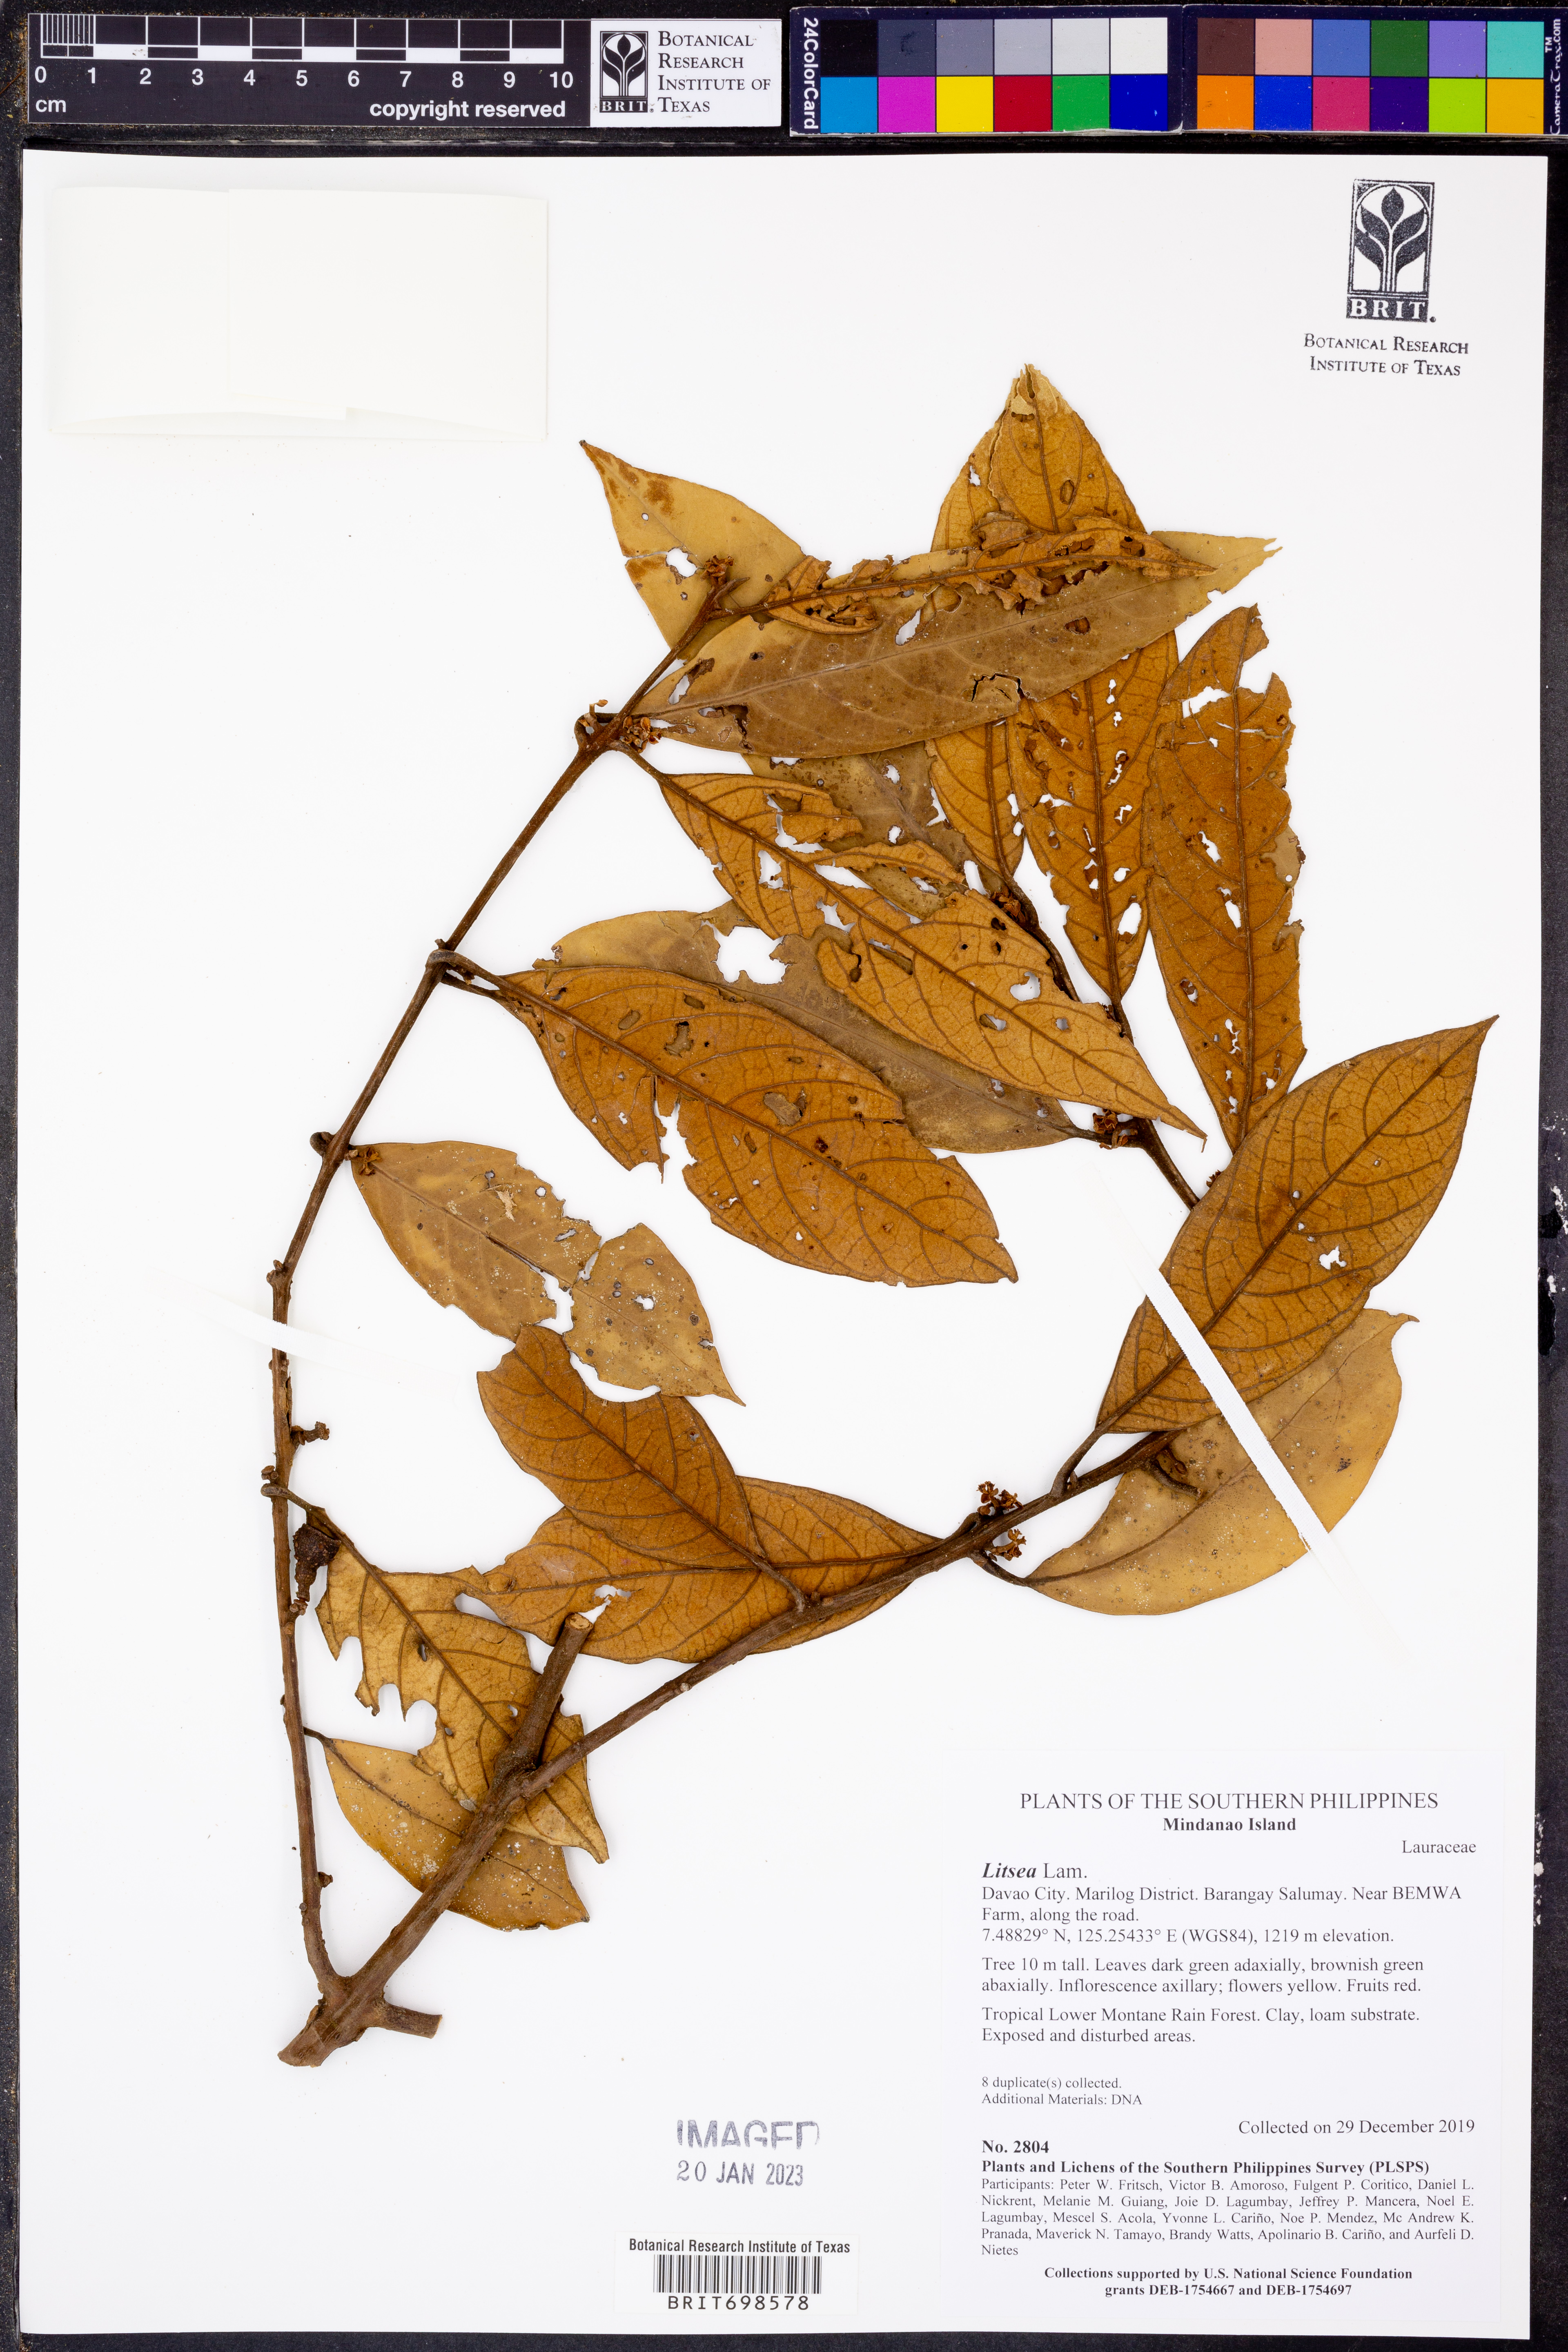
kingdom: Plantae
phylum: Tracheophyta
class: Magnoliopsida
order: Laurales
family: Lauraceae
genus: Litsea
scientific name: Litsea
